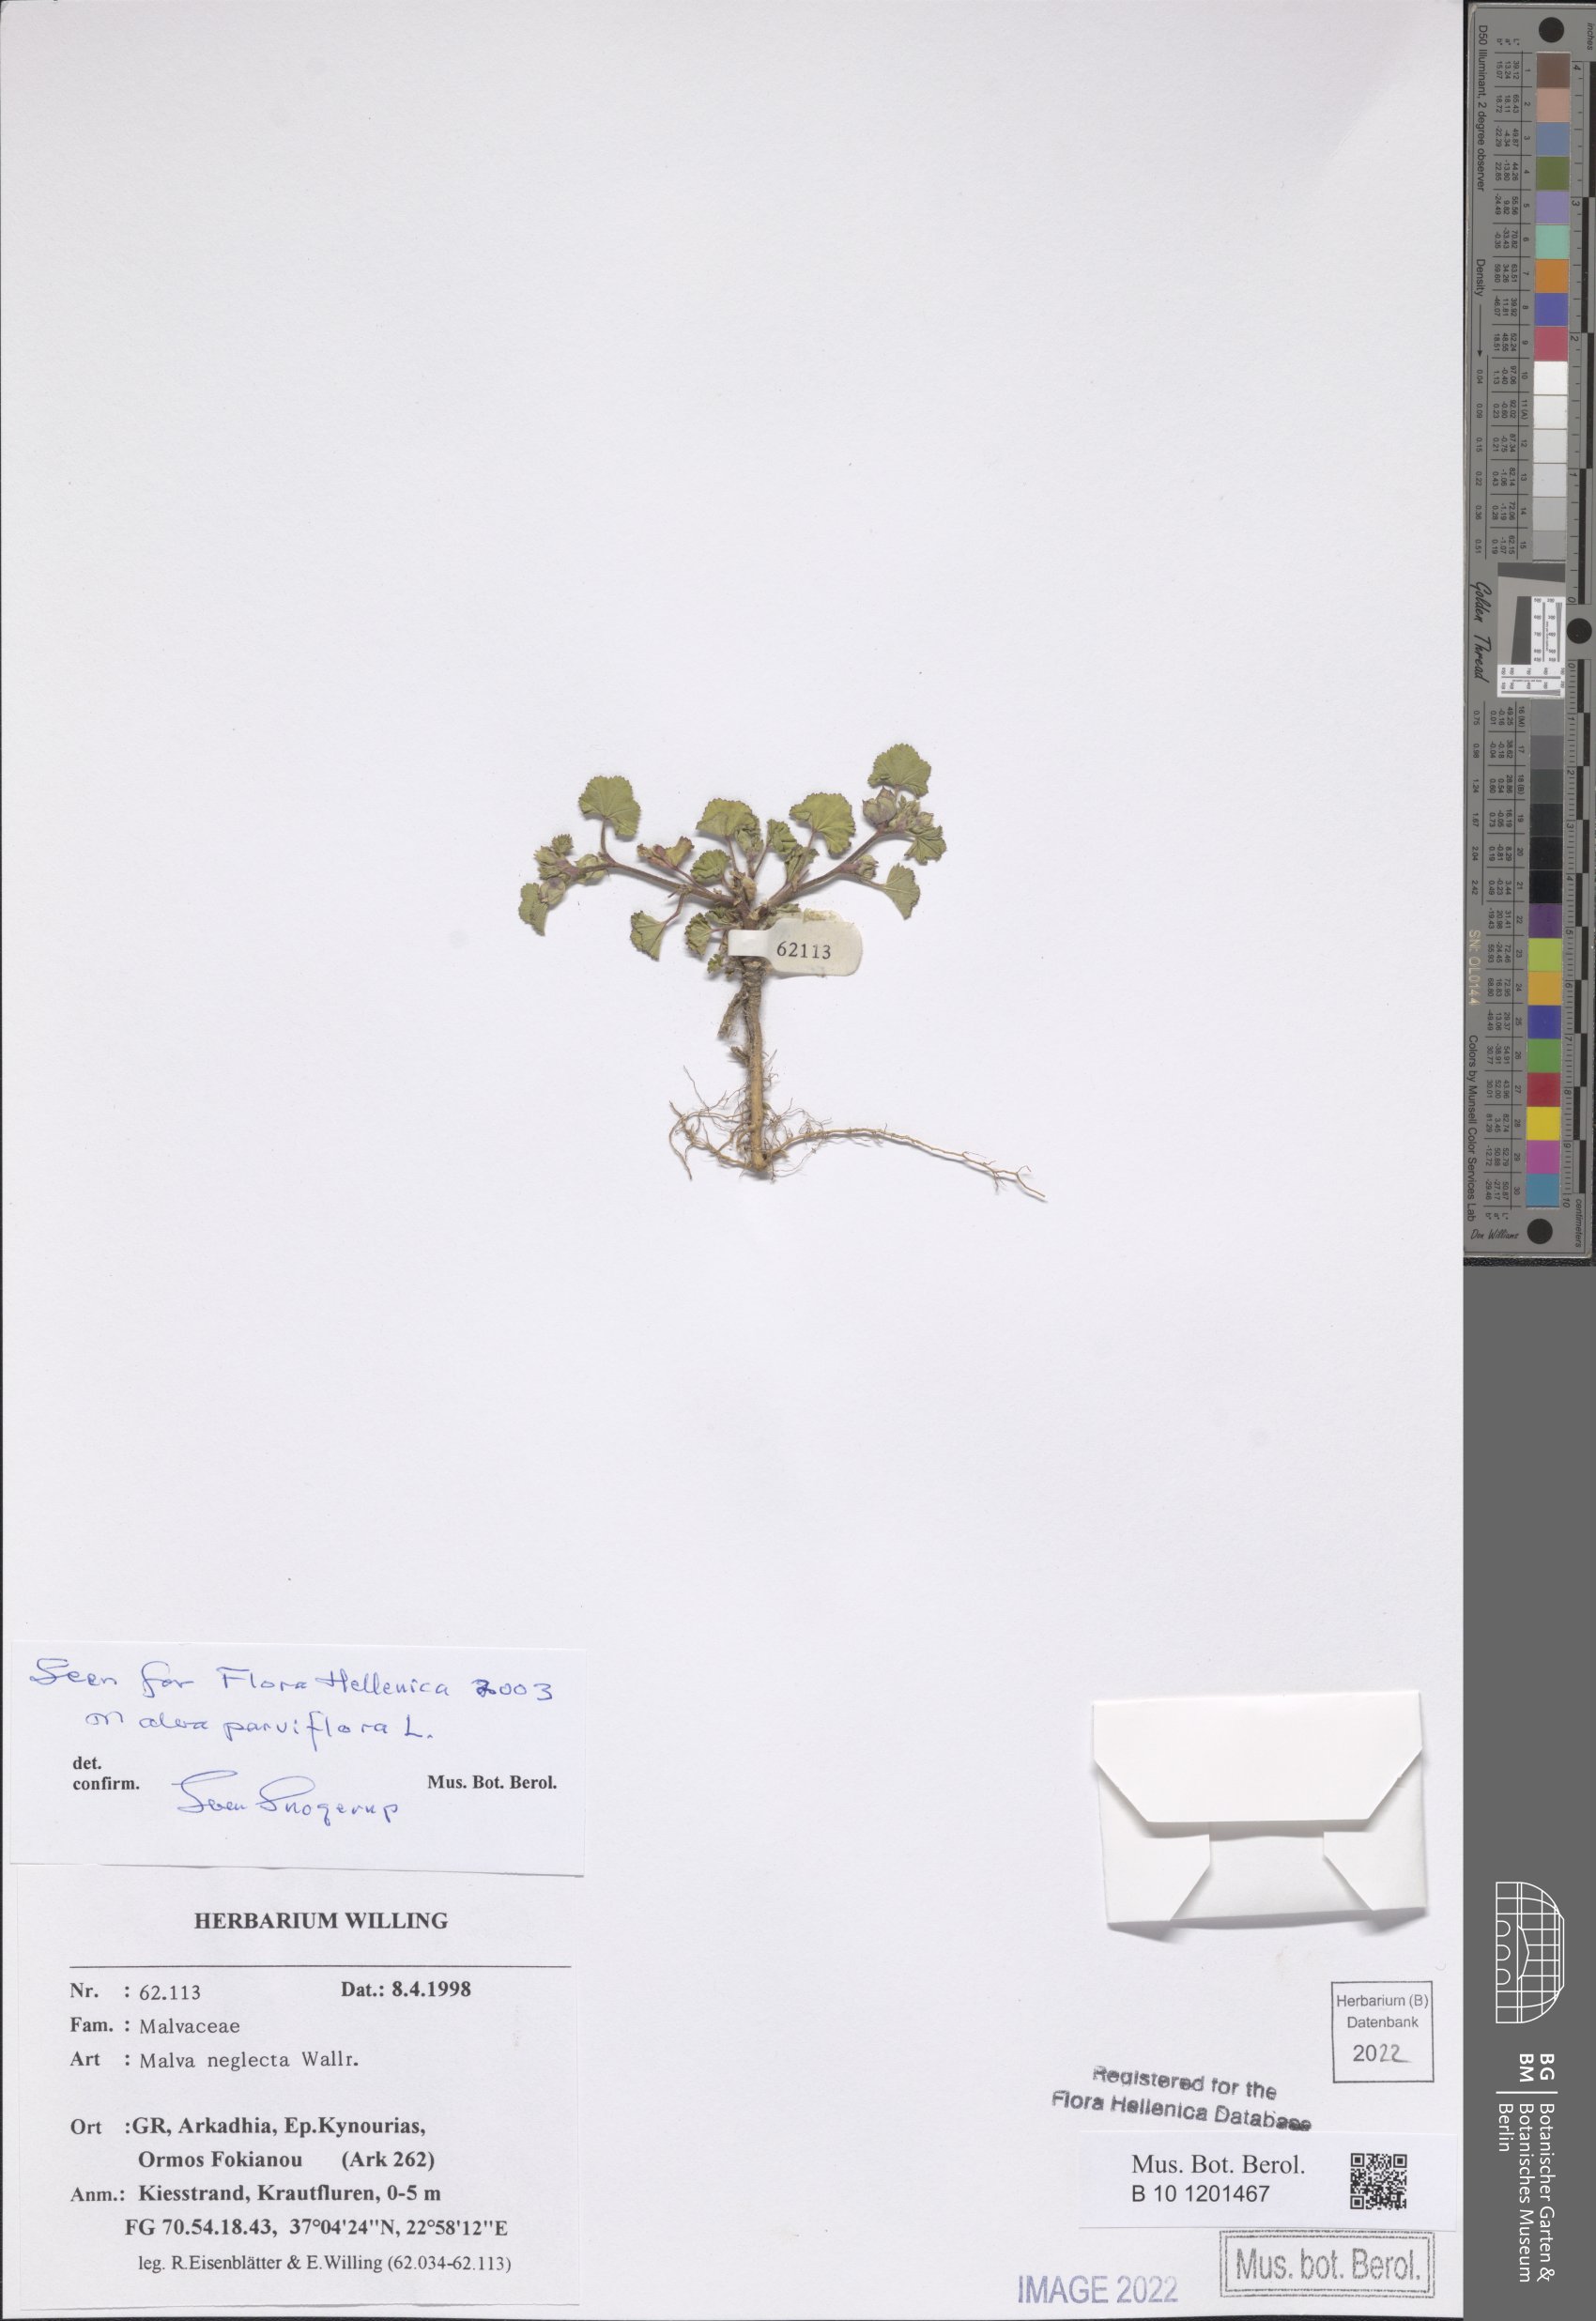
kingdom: Plantae
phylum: Tracheophyta
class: Magnoliopsida
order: Malvales
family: Malvaceae
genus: Malva
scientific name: Malva neglecta
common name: Common mallow
